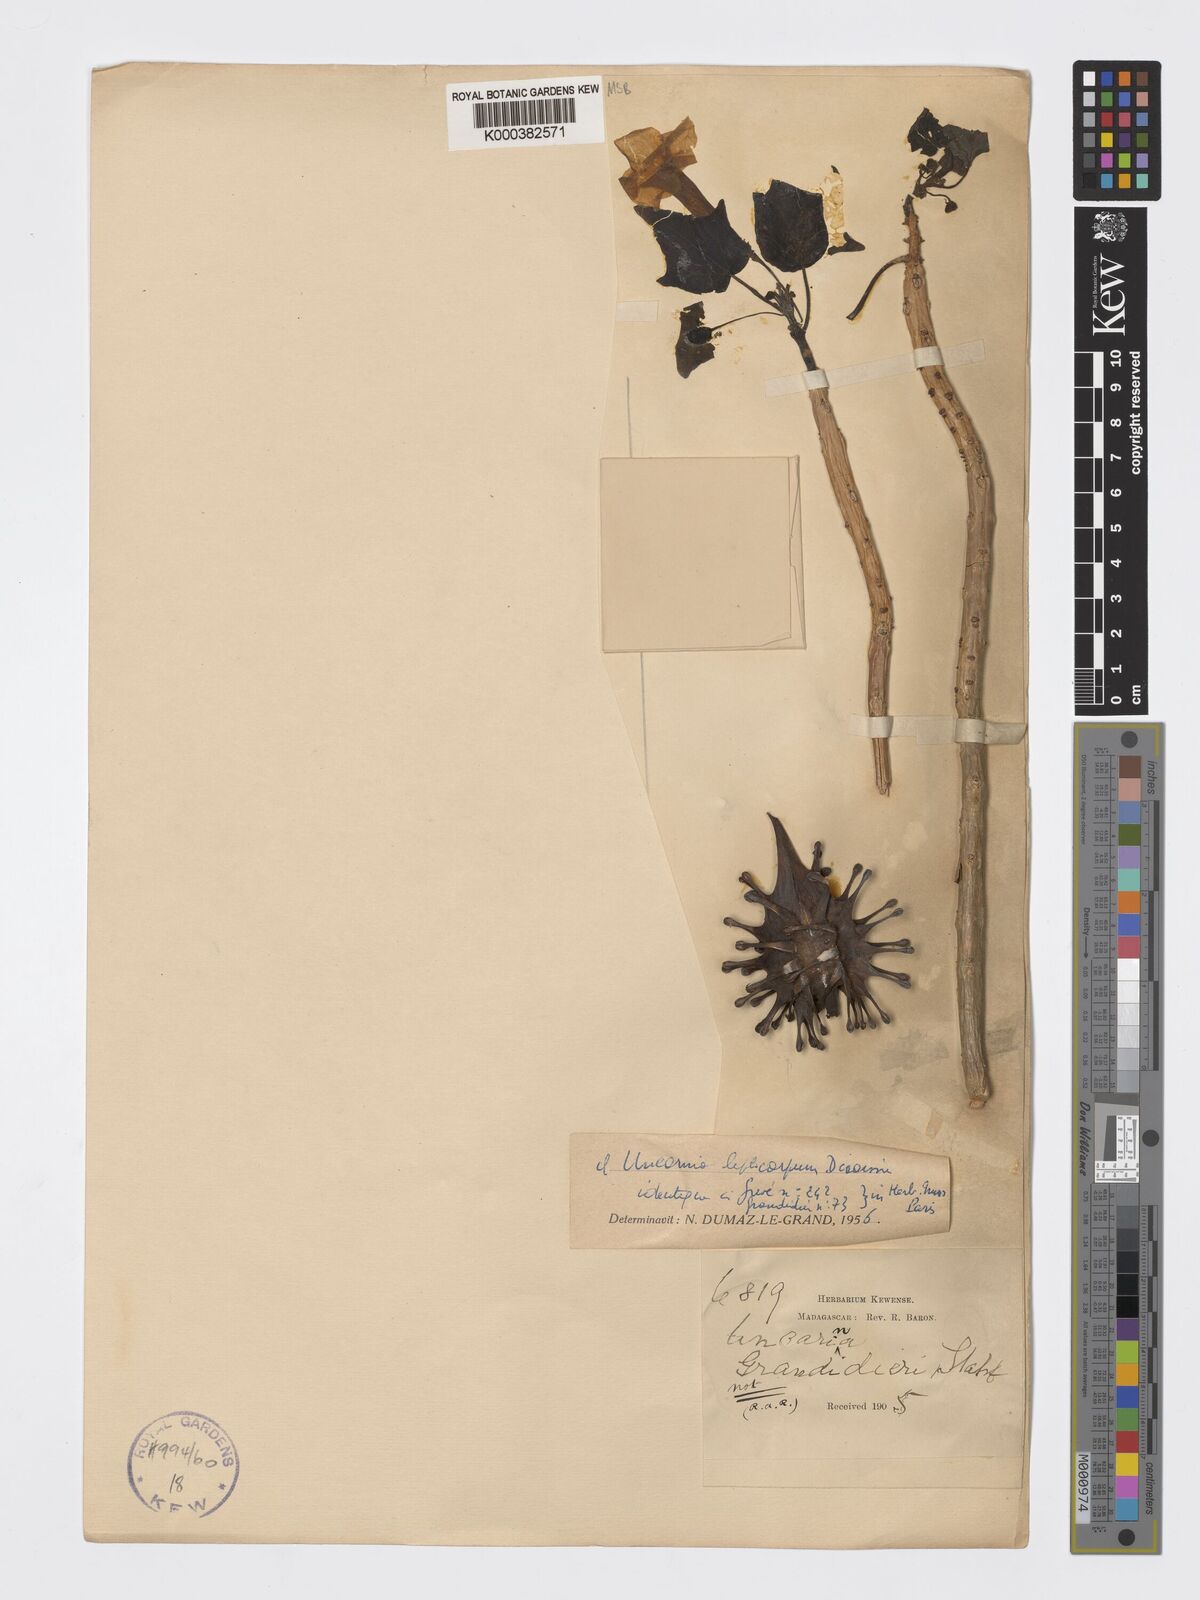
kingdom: Plantae
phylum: Tracheophyta
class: Magnoliopsida
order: Lamiales
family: Pedaliaceae
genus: Uncarina
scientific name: Uncarina leptocarpa
